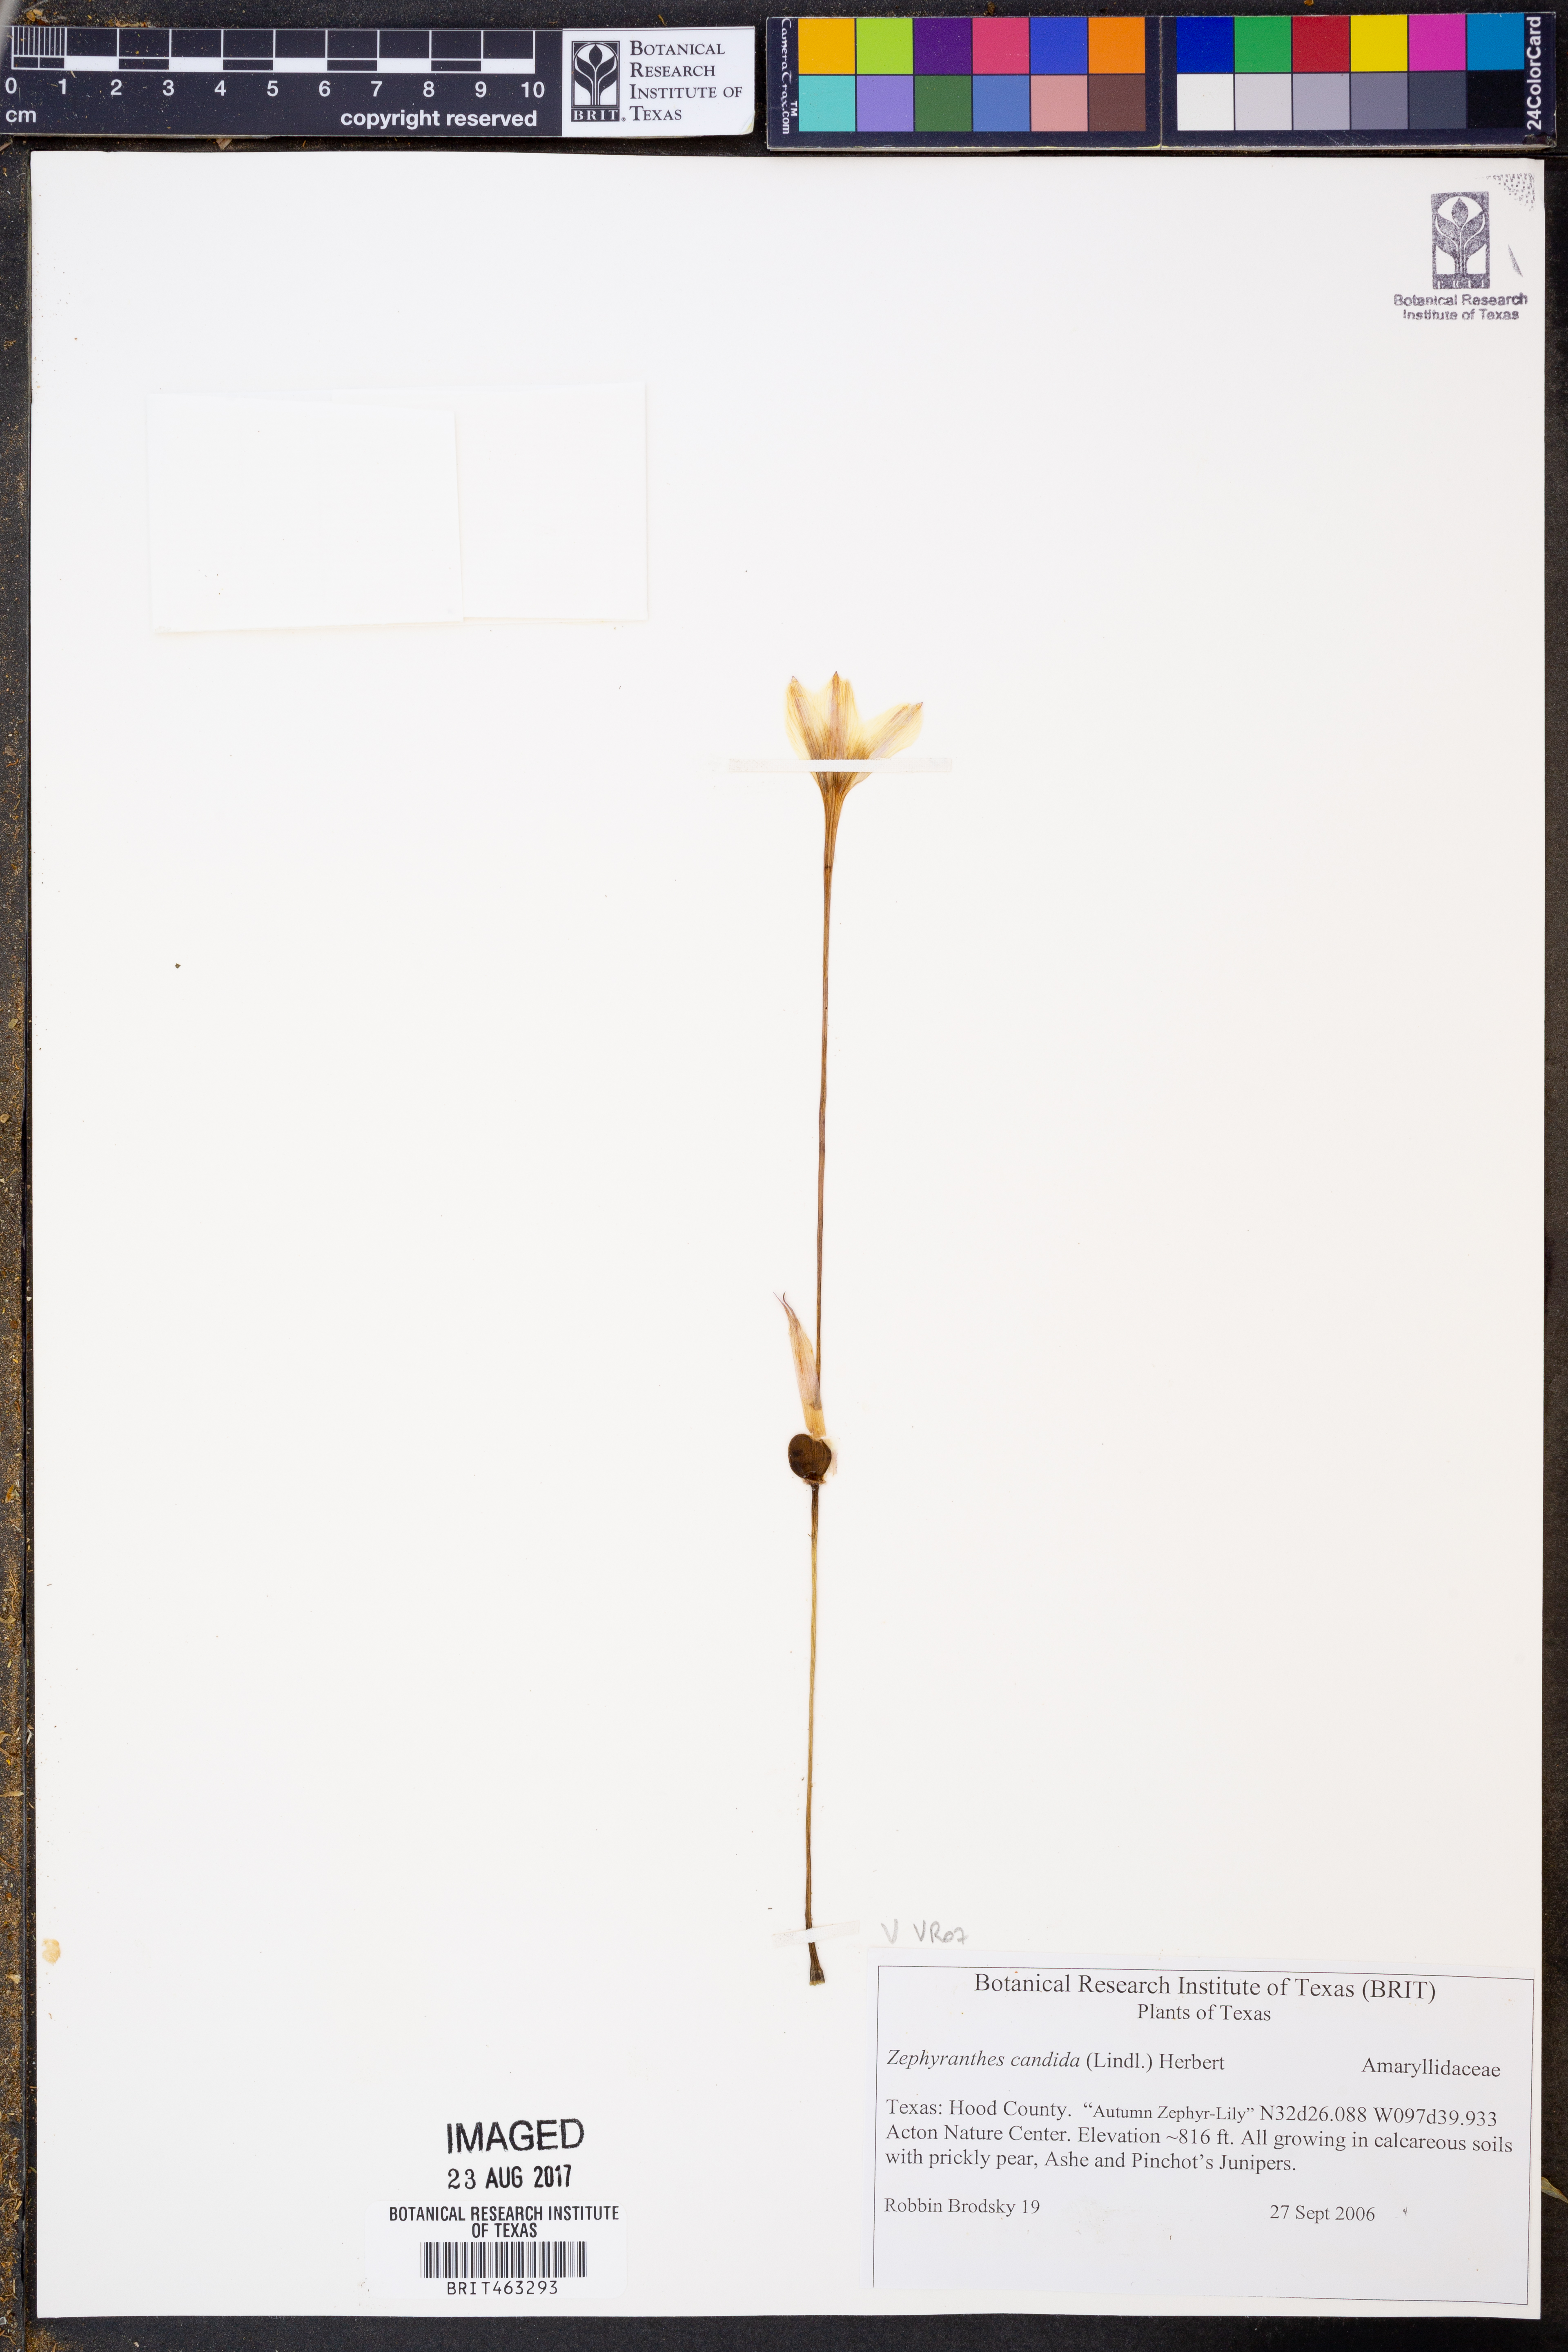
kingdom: Plantae
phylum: Tracheophyta
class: Liliopsida
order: Asparagales
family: Amaryllidaceae
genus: Zephyranthes
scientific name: Zephyranthes candida
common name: Autumn zephyrlily
